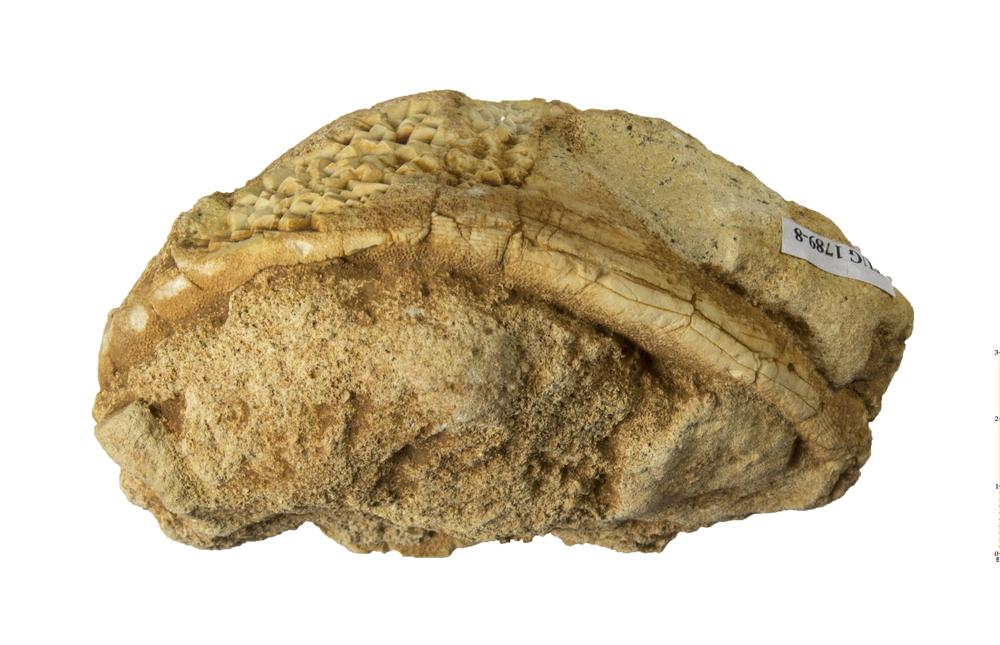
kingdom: Animalia
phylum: Echinodermata
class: Echinoidea
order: Clypeasteroida
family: Clypeasteridae
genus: Clypeaster
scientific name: Clypeaster
